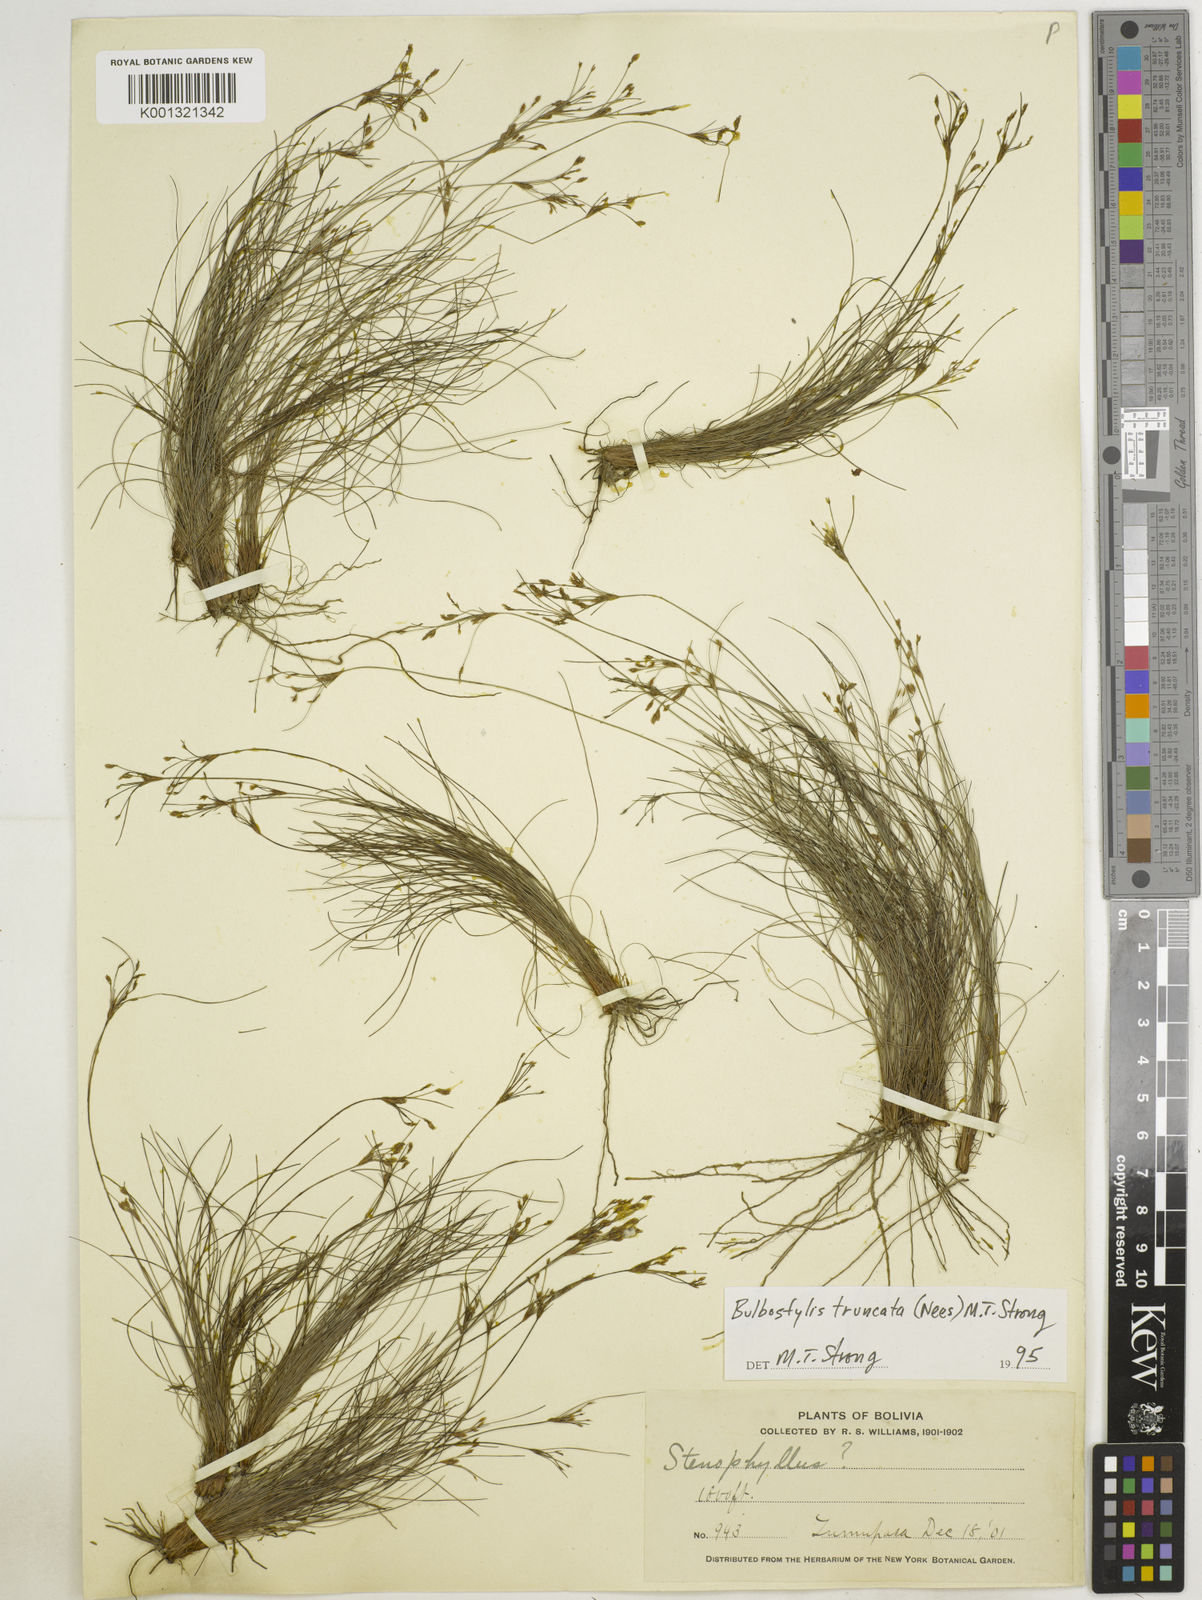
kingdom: Plantae
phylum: Tracheophyta
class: Liliopsida
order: Poales
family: Cyperaceae
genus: Bulbostylis
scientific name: Bulbostylis truncata
